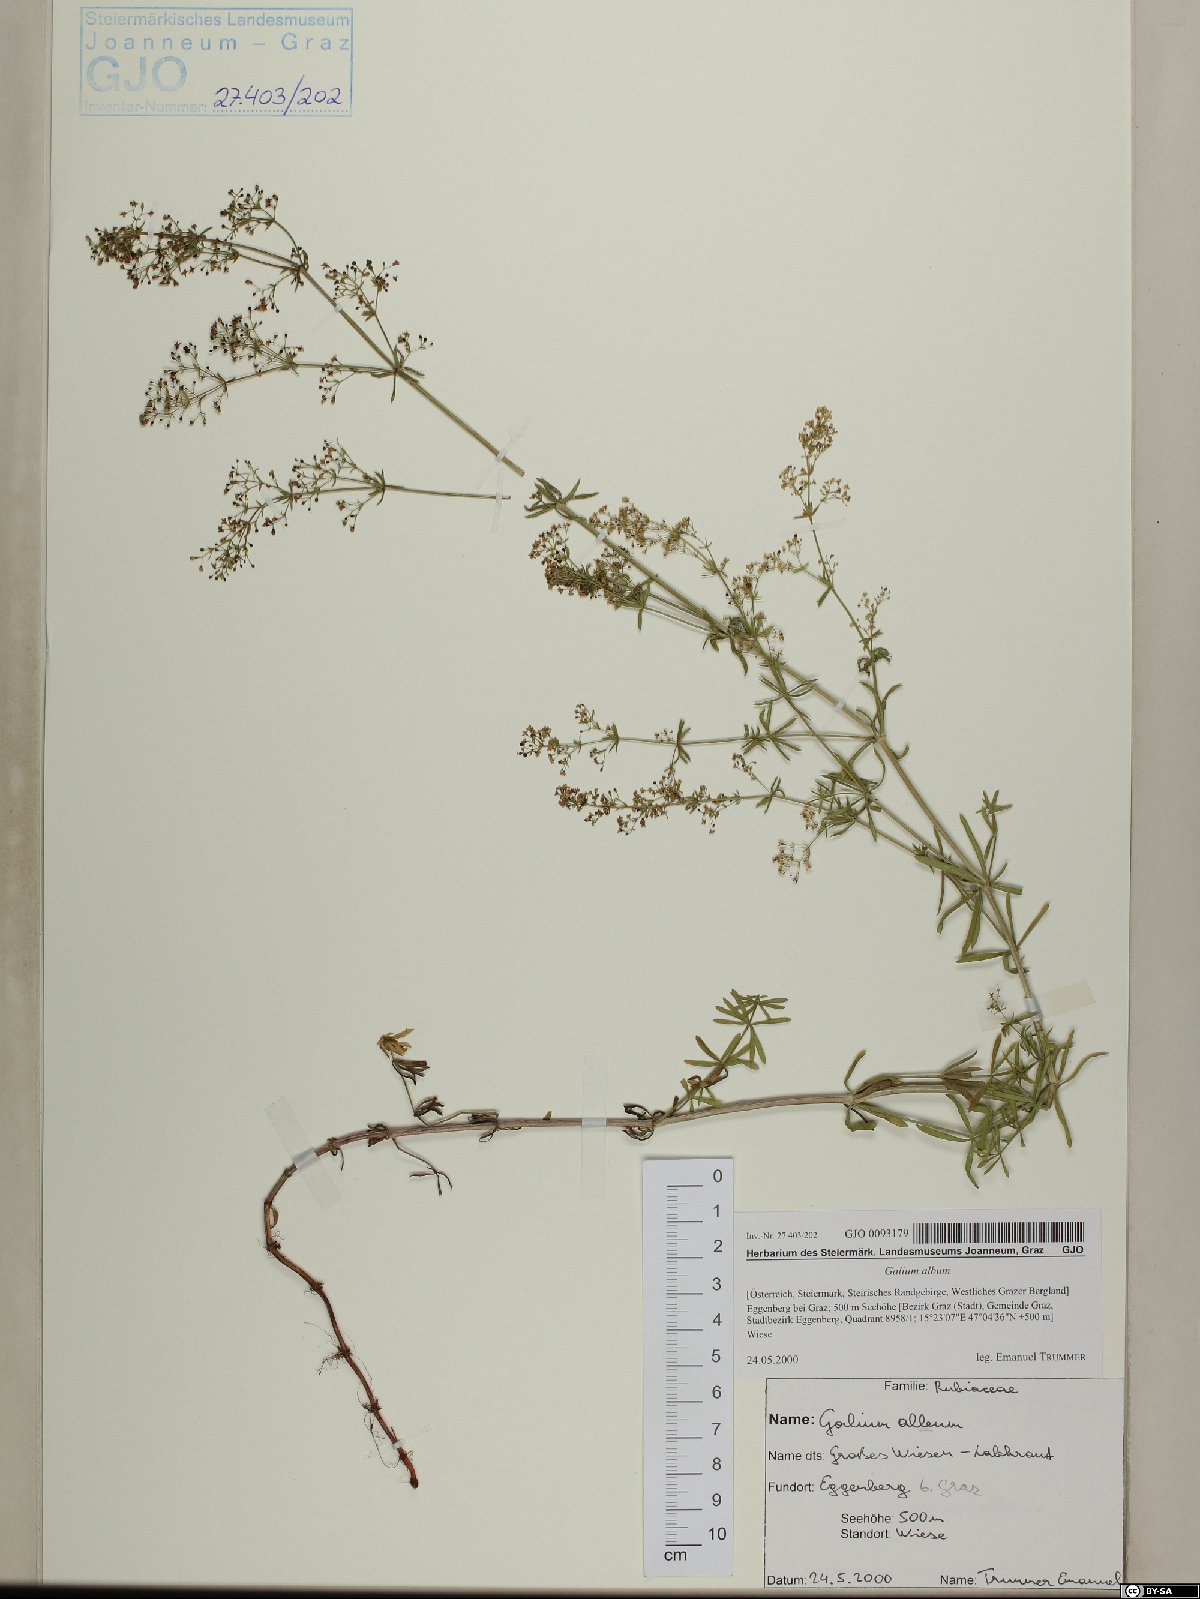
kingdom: Plantae
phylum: Tracheophyta
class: Magnoliopsida
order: Gentianales
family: Rubiaceae
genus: Galium
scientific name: Galium album
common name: White bedstraw
